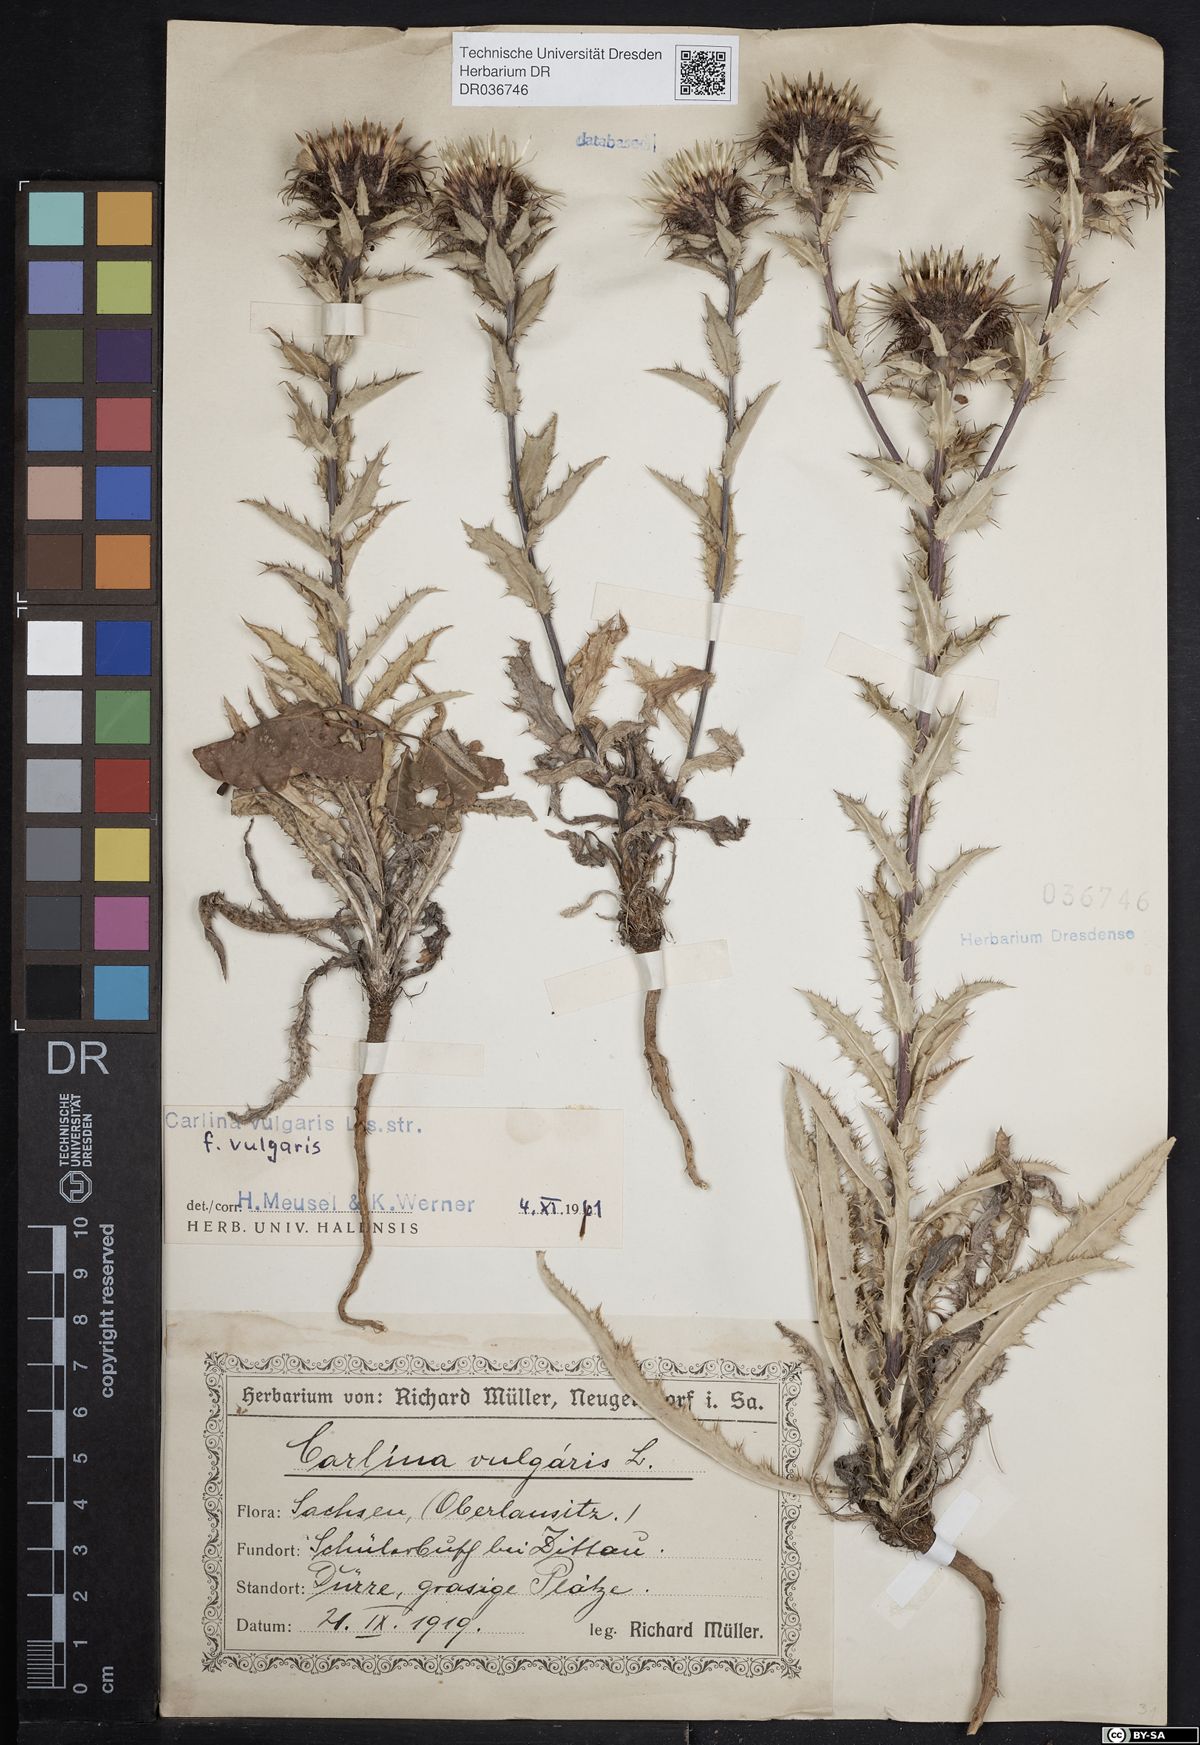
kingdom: Plantae
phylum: Tracheophyta
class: Magnoliopsida
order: Asterales
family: Asteraceae
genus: Carlina
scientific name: Carlina vulgaris
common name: Carline thistle
